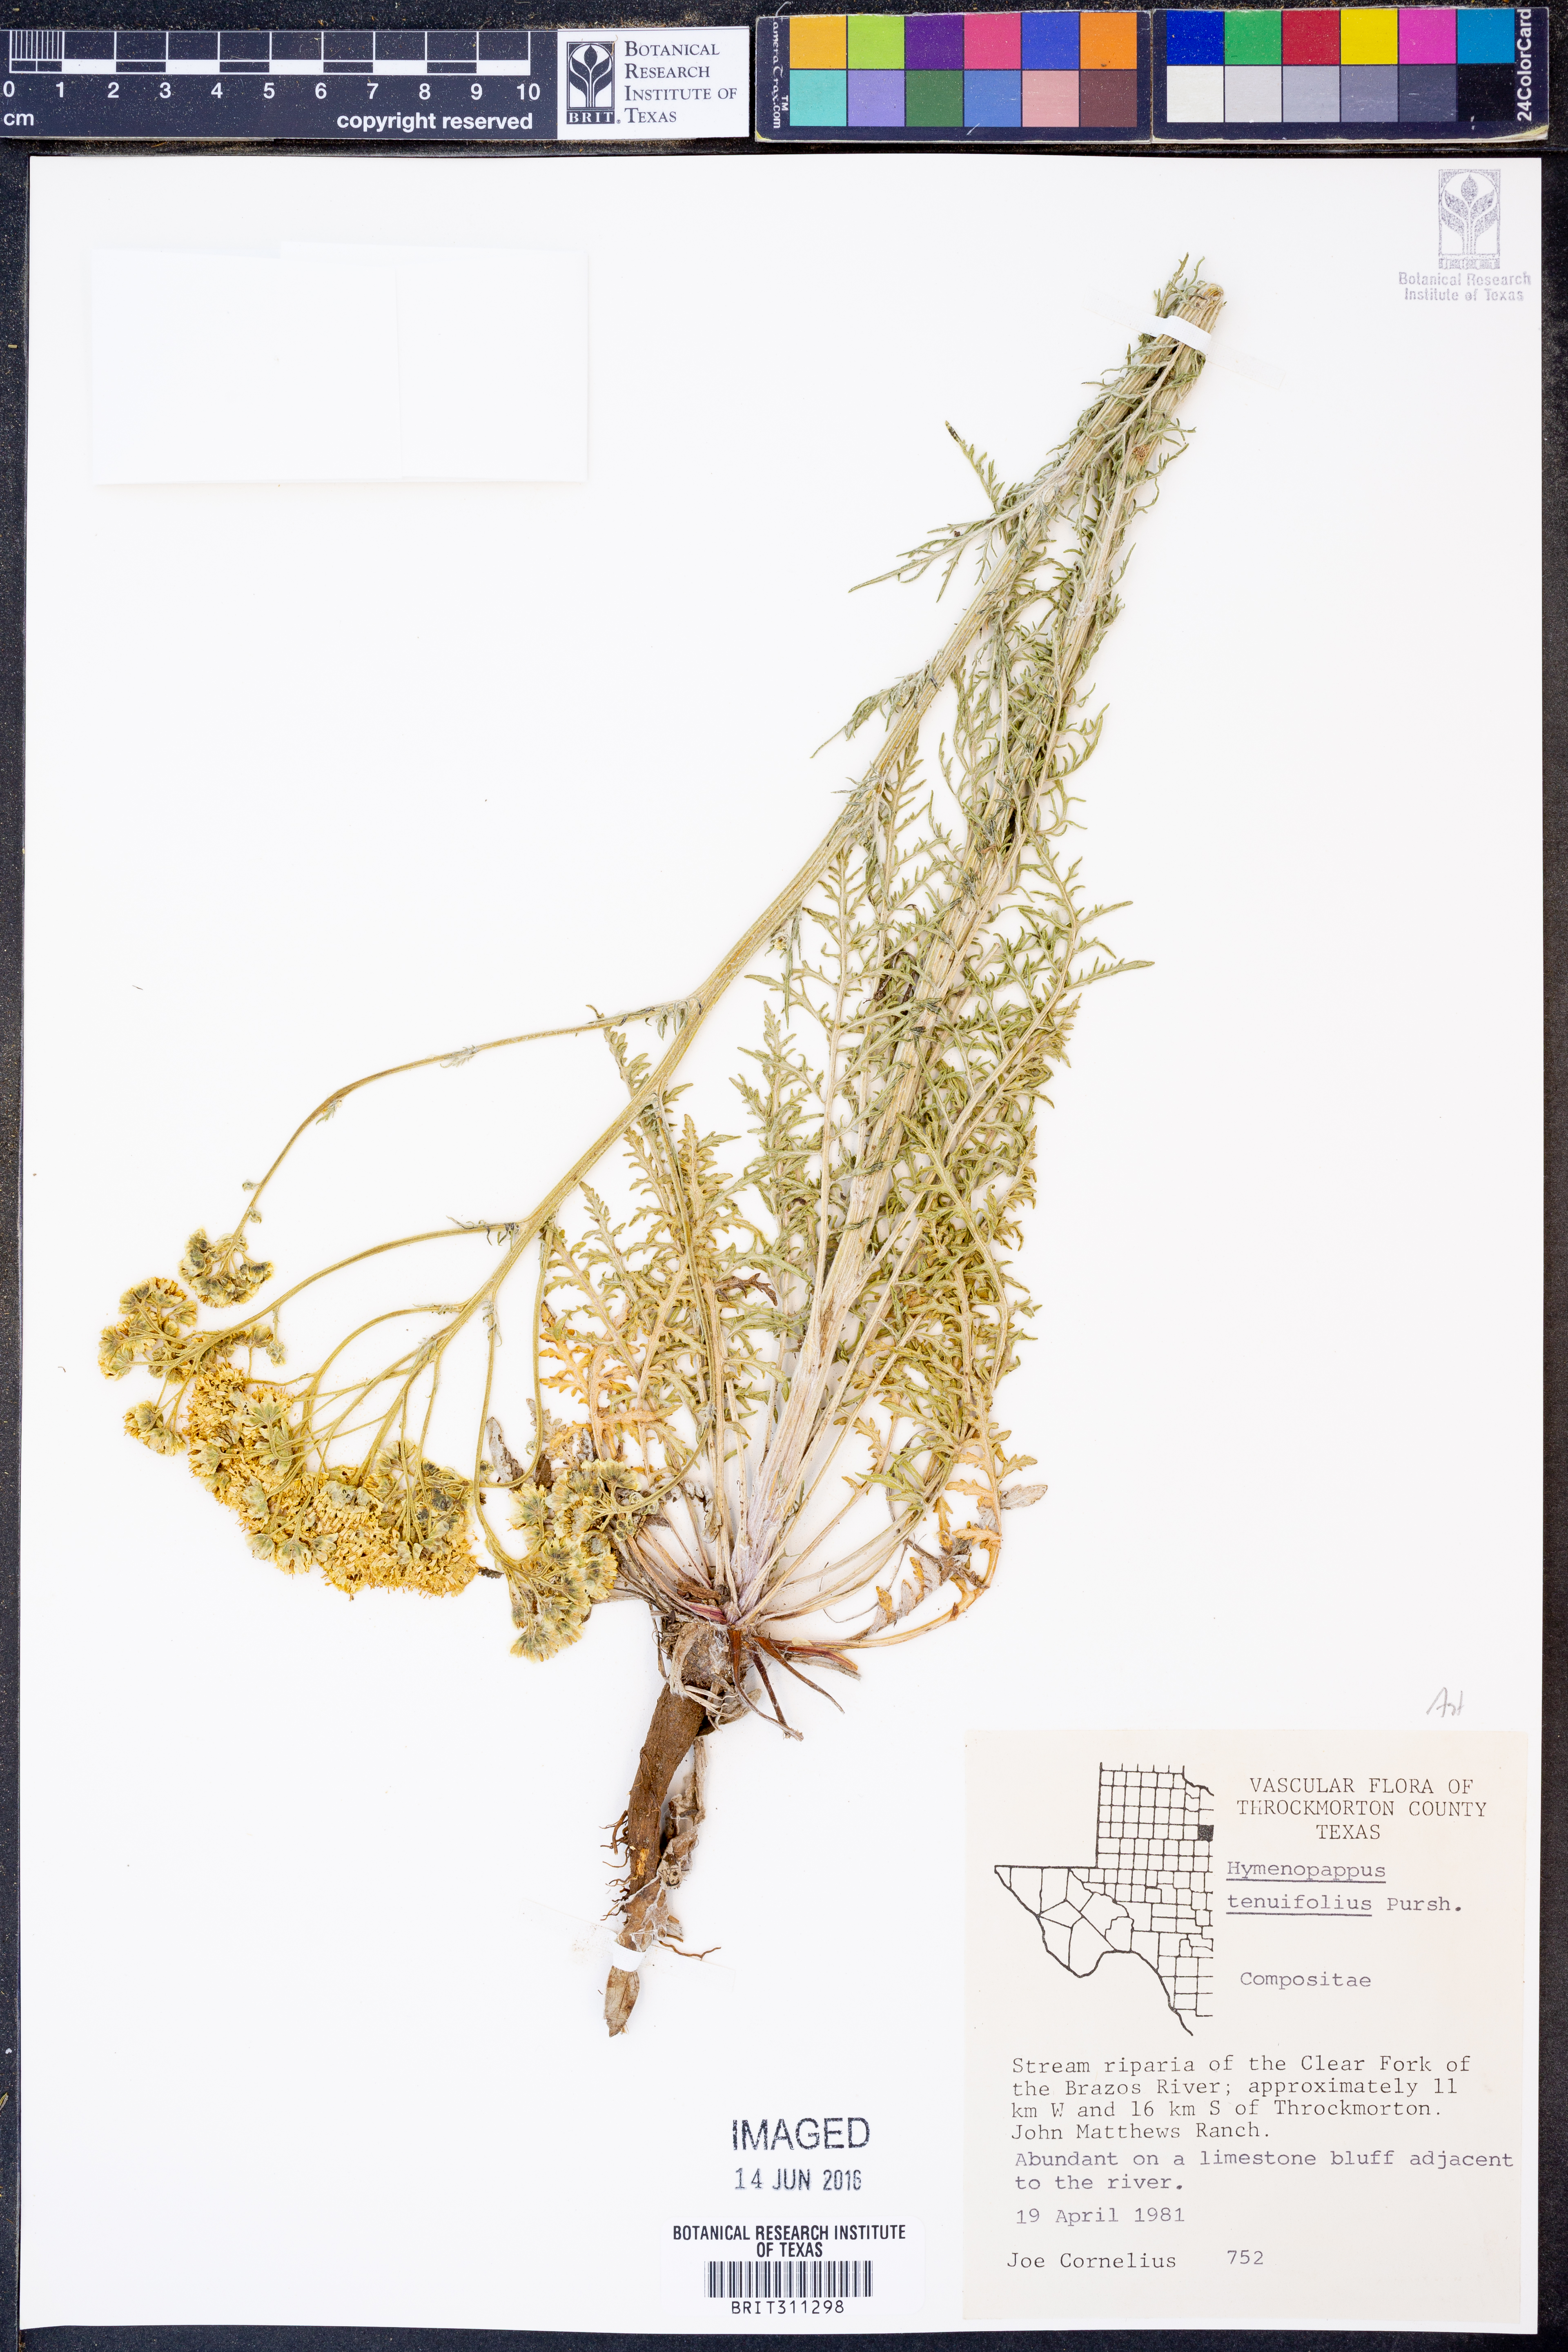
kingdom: Plantae
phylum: Tracheophyta
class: Magnoliopsida
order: Asterales
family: Asteraceae
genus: Hymenopappus
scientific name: Hymenopappus tenuifolius
